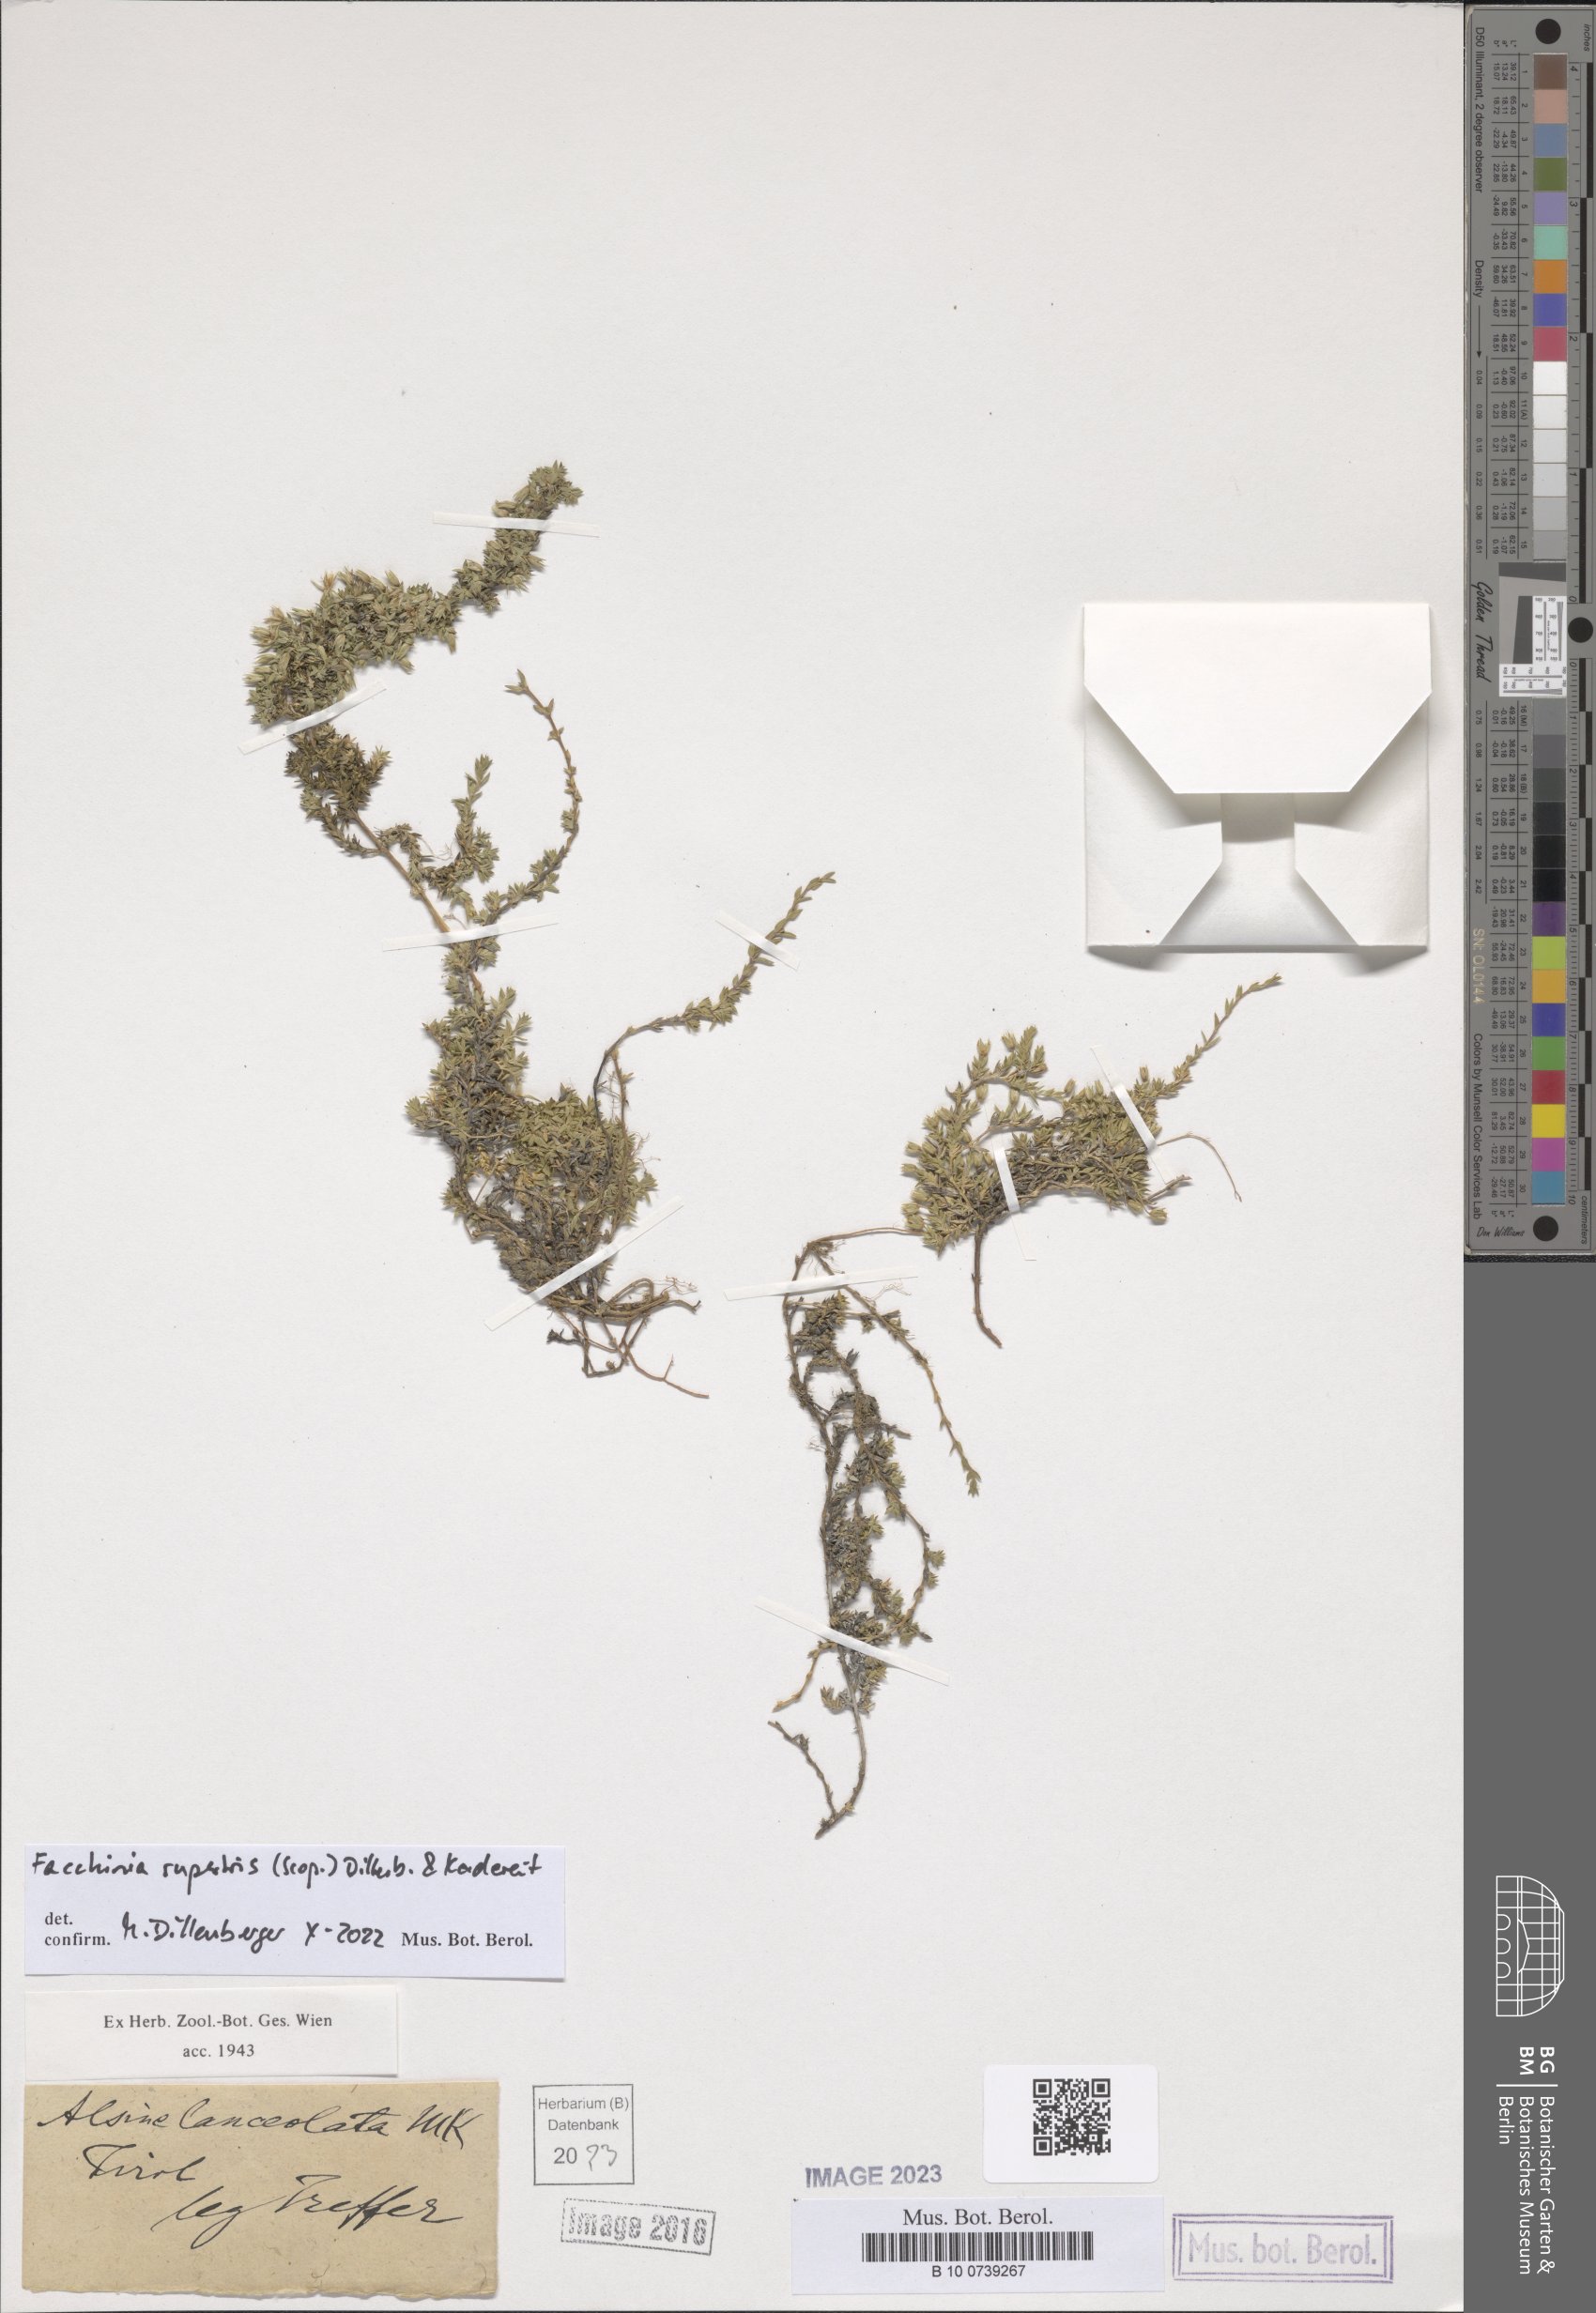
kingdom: Plantae
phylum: Tracheophyta
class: Magnoliopsida
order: Caryophyllales
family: Caryophyllaceae
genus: Facchinia
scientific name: Facchinia rupestris
